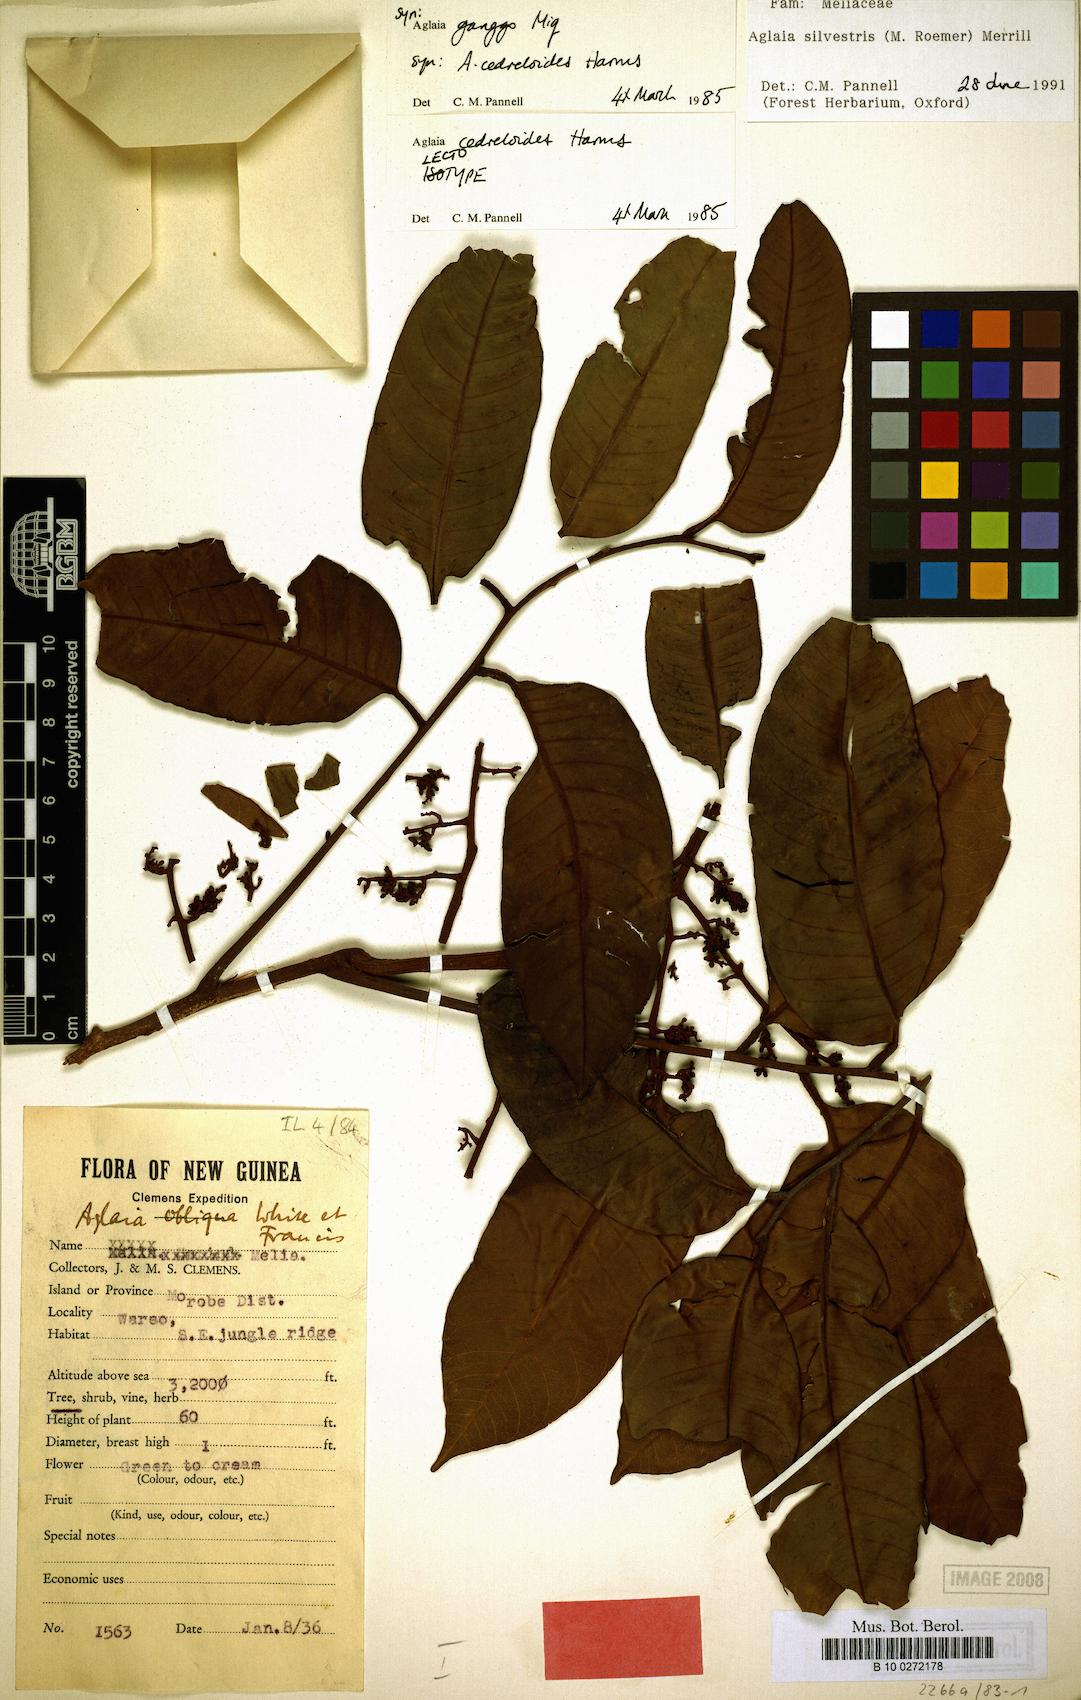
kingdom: Plantae
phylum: Tracheophyta
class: Magnoliopsida
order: Sapindales
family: Meliaceae
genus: Aglaia
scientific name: Aglaia silvestris
